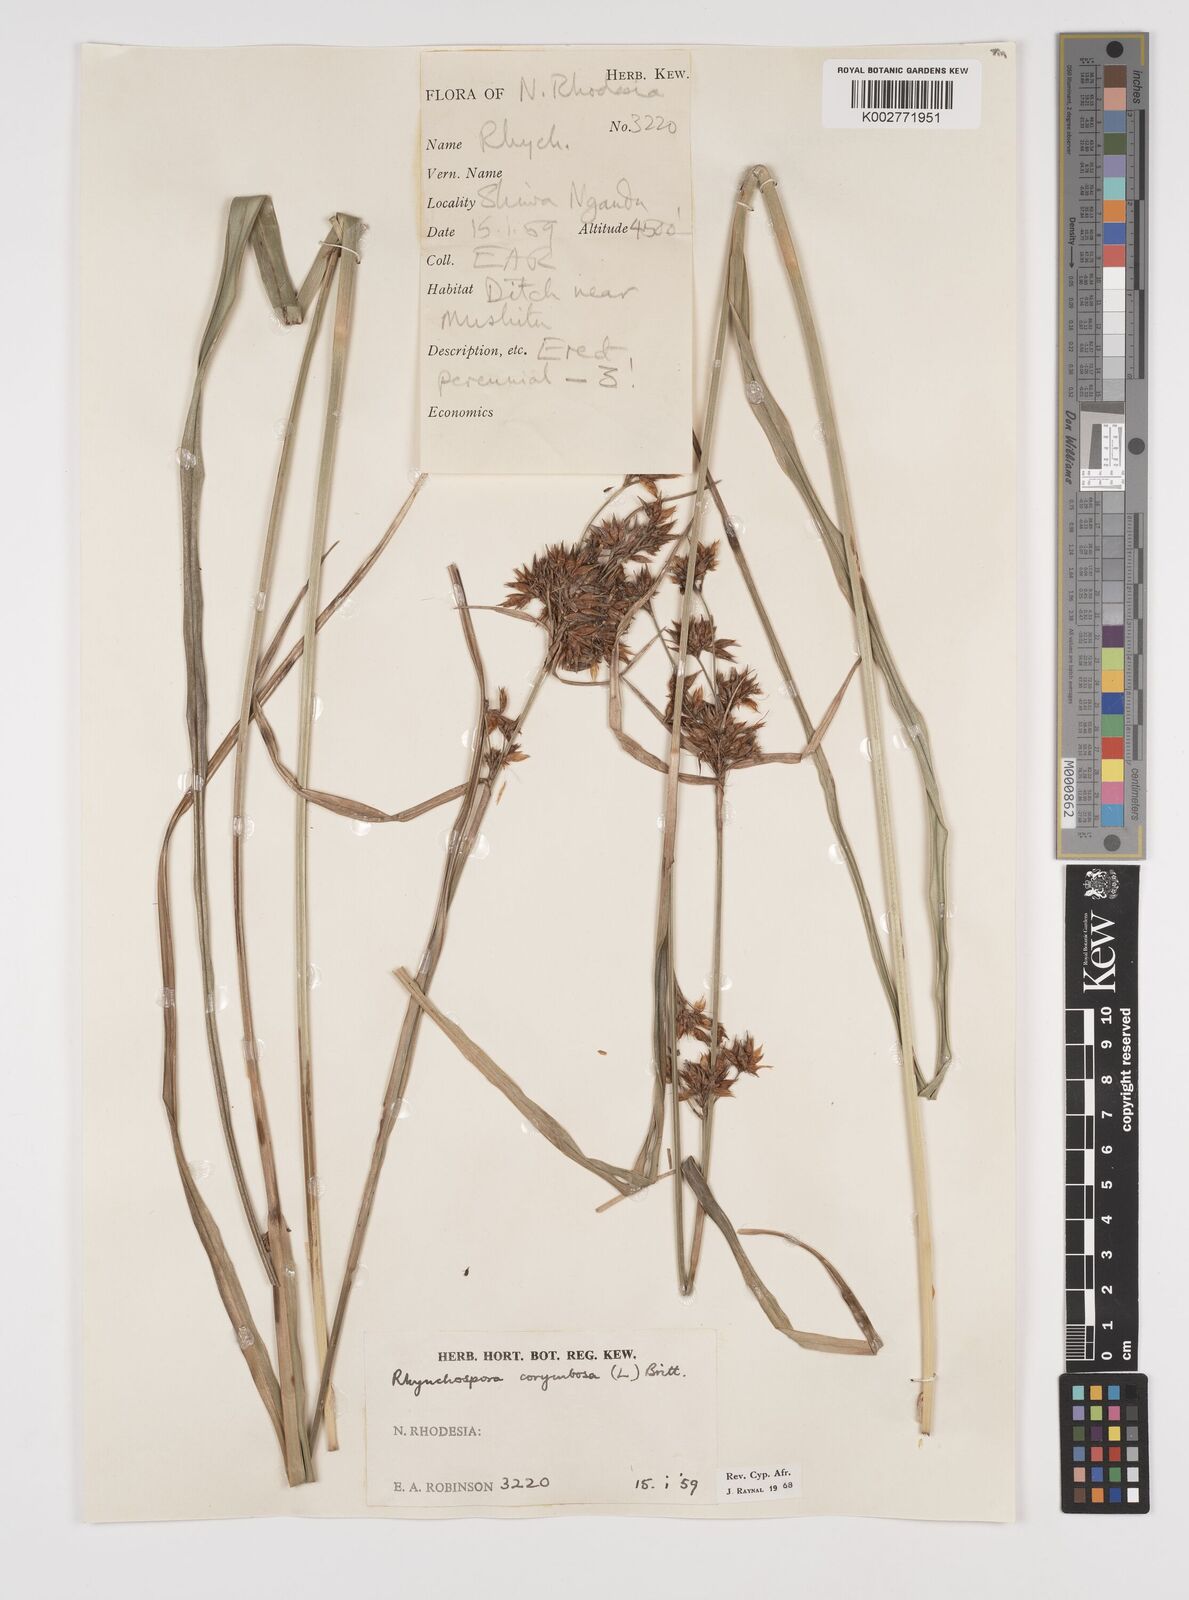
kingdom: Plantae
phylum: Tracheophyta
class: Liliopsida
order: Poales
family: Cyperaceae
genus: Rhynchospora
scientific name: Rhynchospora corymbosa
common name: Golden beak sedge
